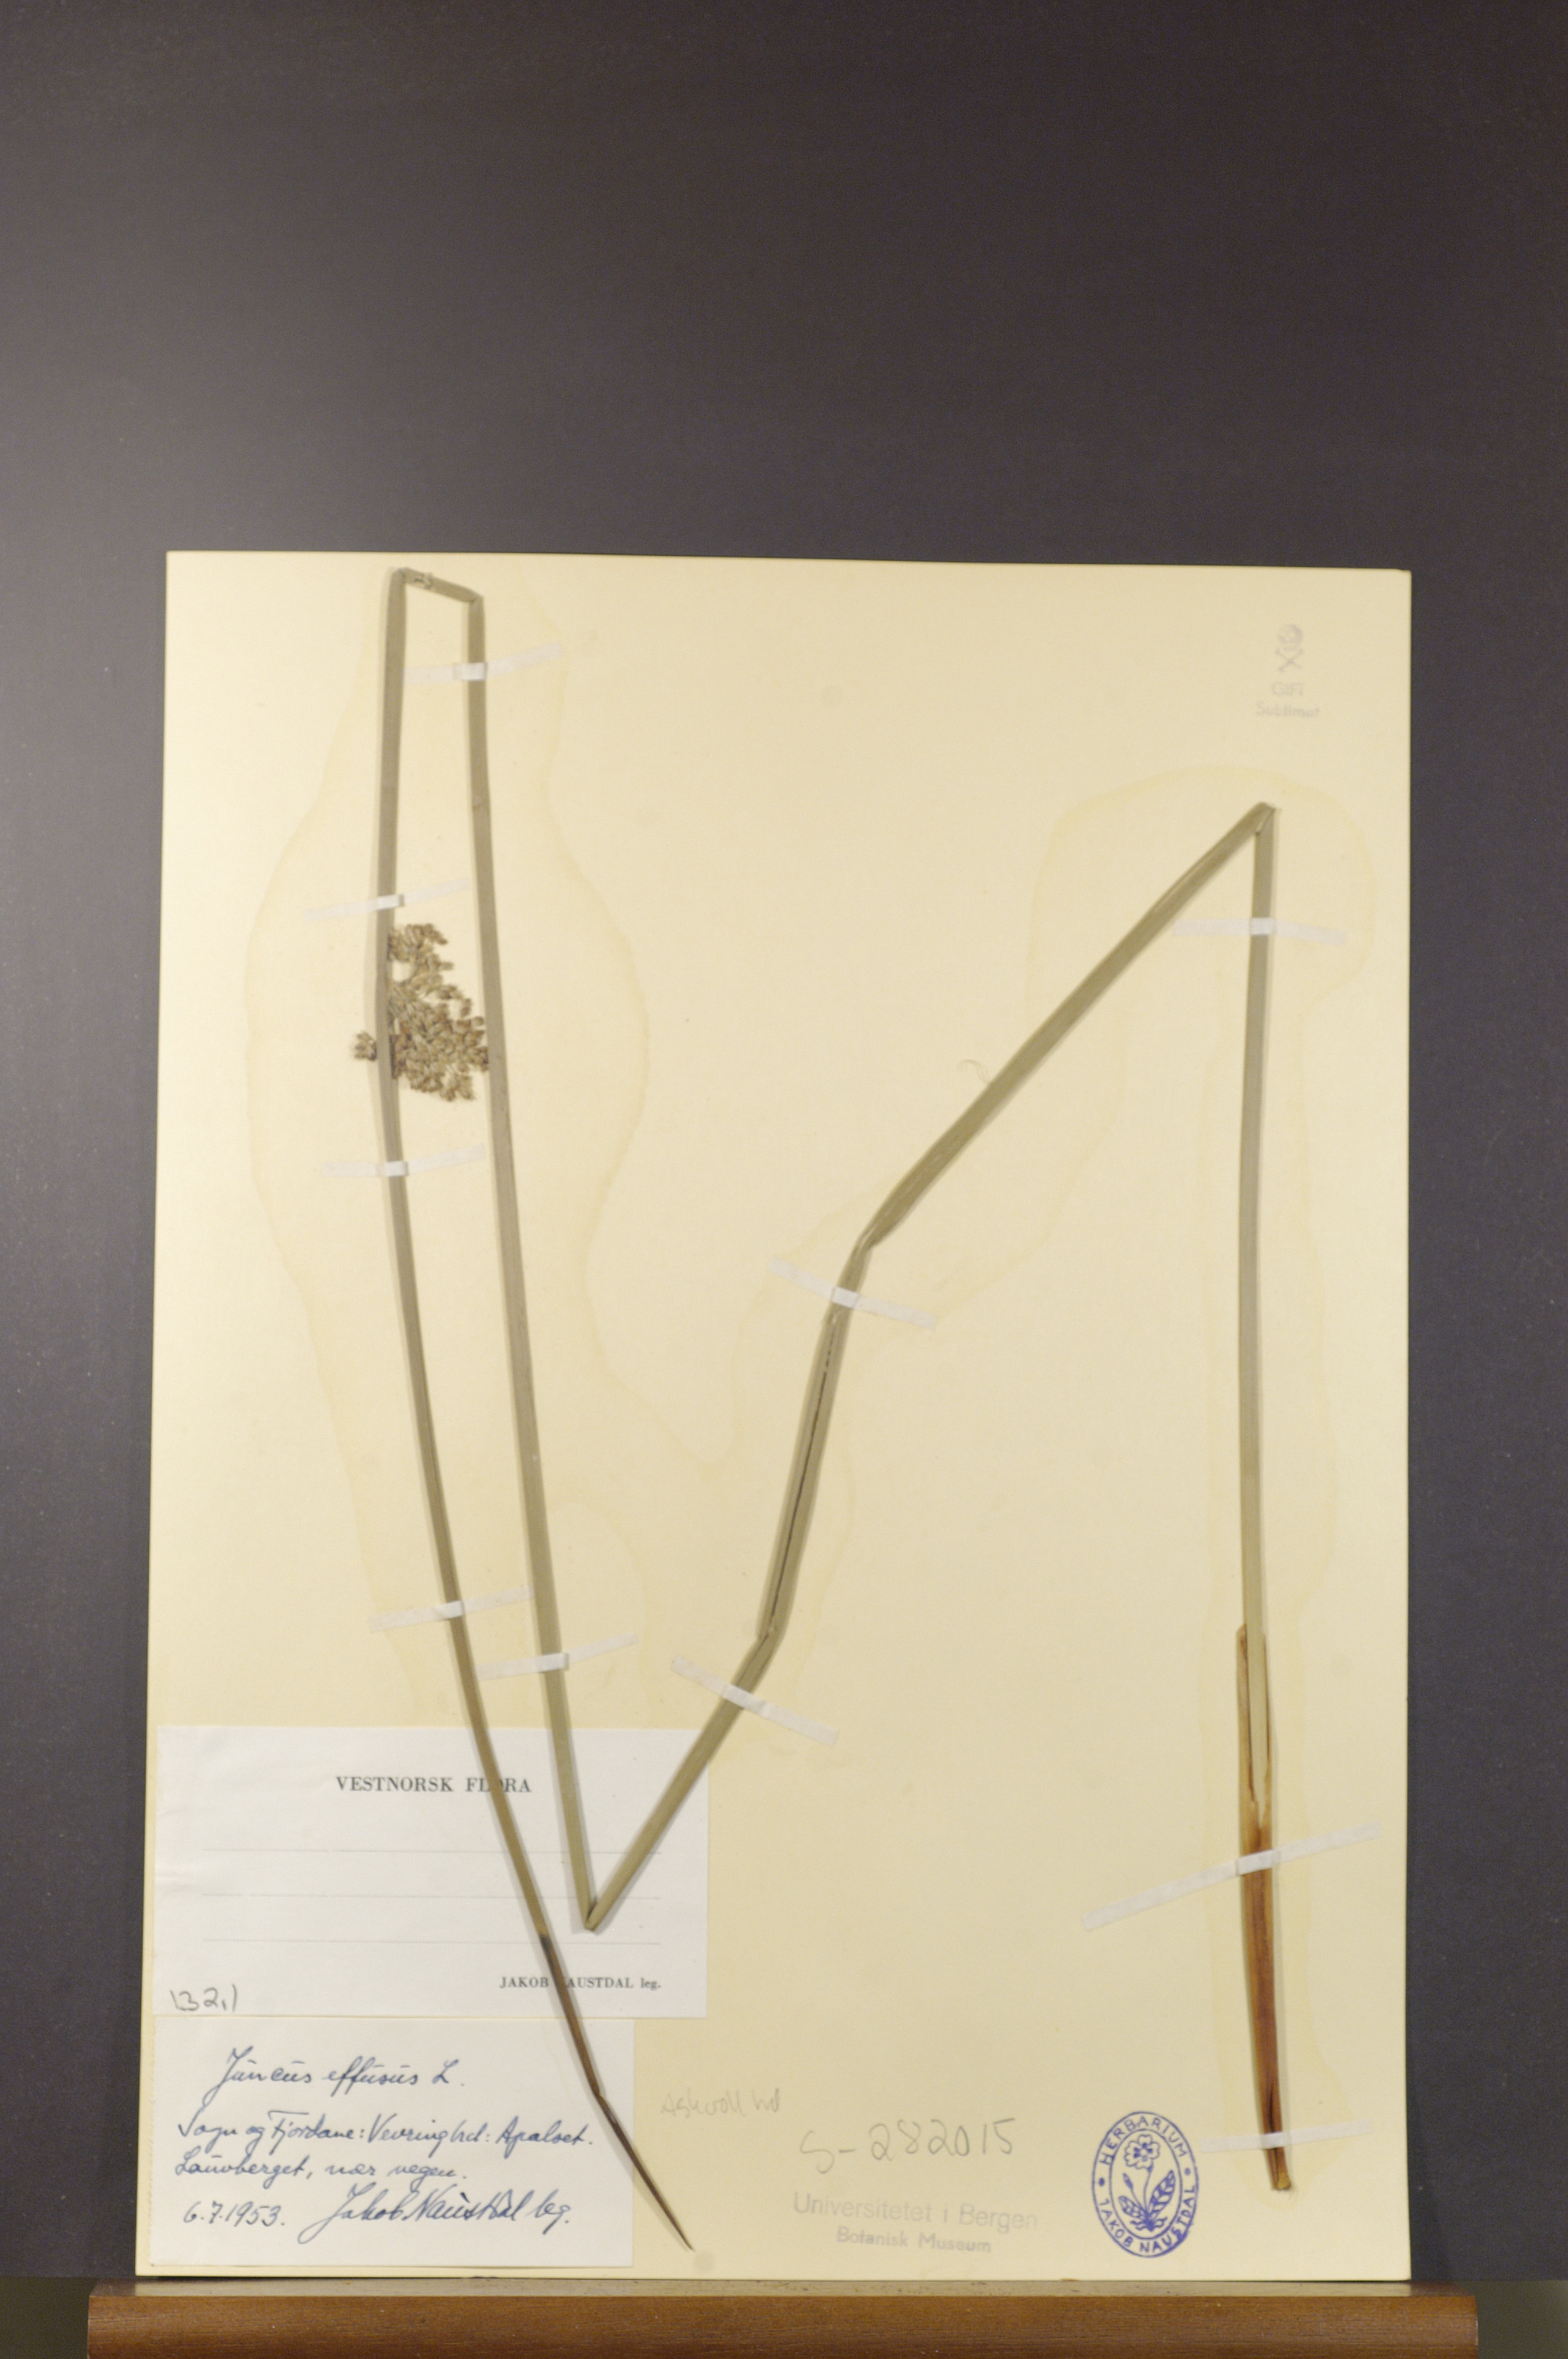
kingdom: Plantae
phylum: Tracheophyta
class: Liliopsida
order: Poales
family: Juncaceae
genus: Juncus
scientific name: Juncus effusus
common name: Soft rush
